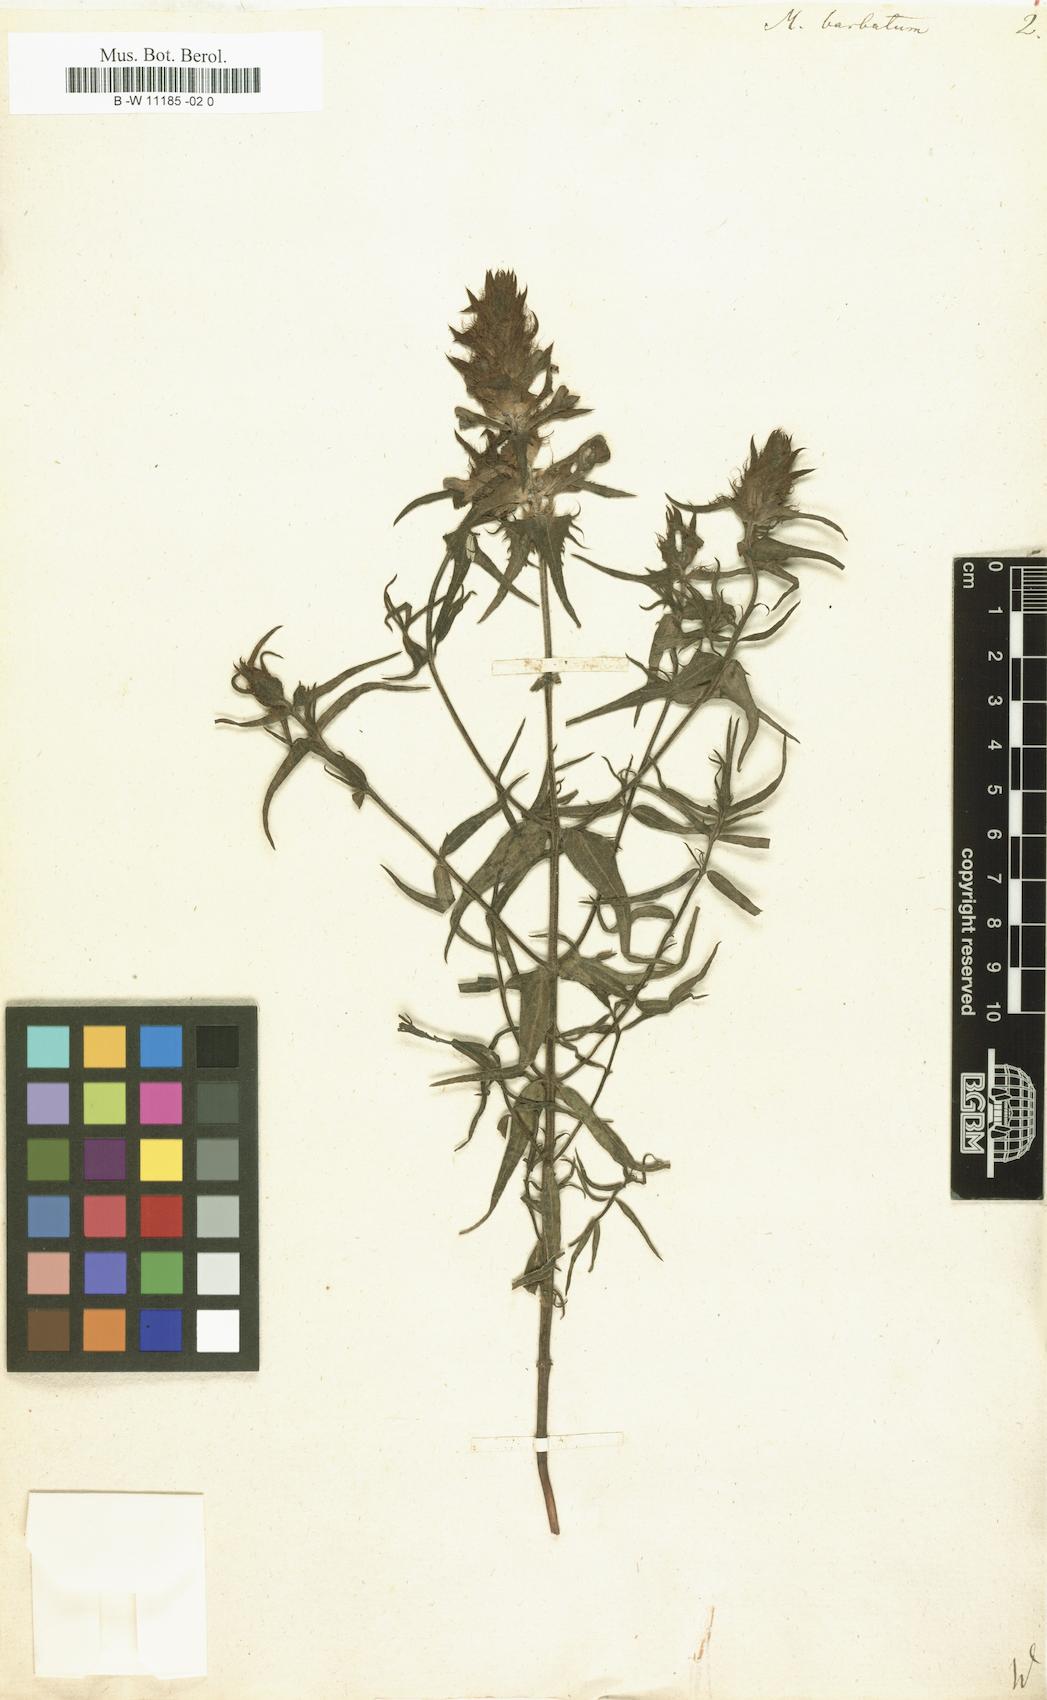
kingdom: Plantae
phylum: Tracheophyta
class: Magnoliopsida
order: Lamiales
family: Orobanchaceae
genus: Melampyrum
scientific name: Melampyrum barbatum
